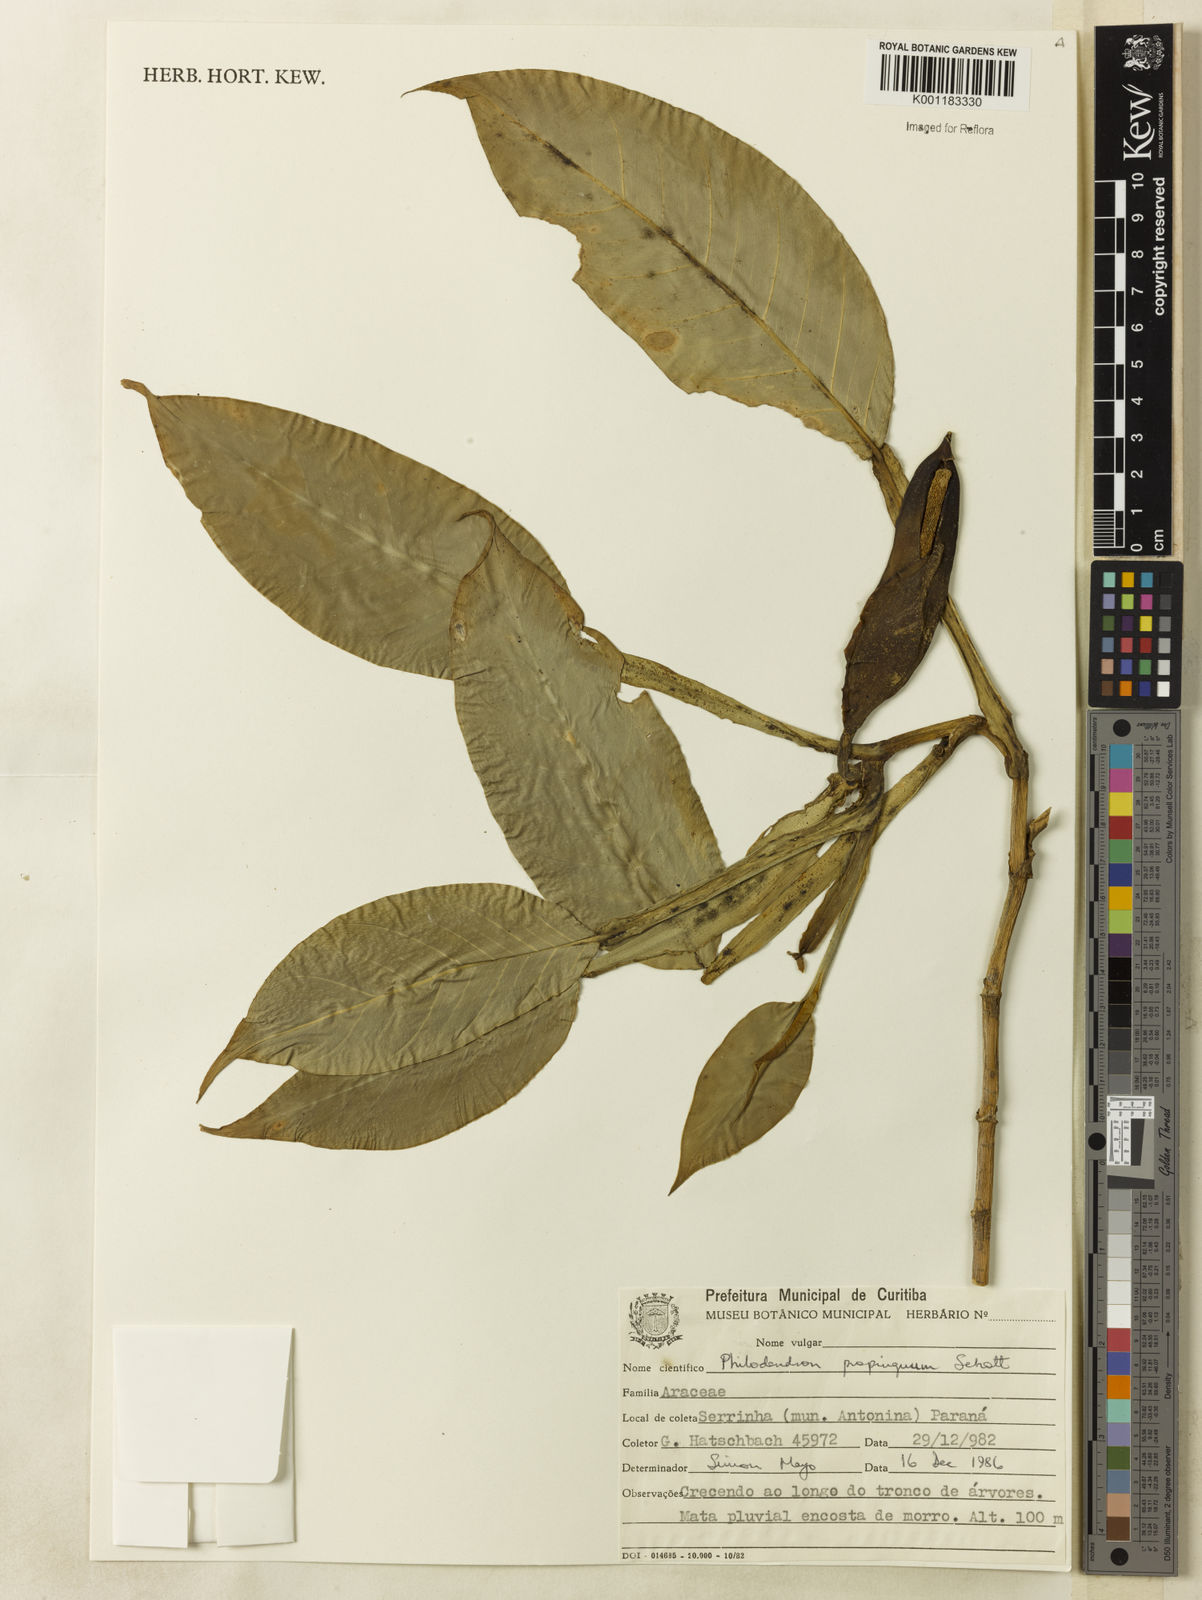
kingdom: Plantae
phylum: Tracheophyta
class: Liliopsida
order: Alismatales
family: Araceae
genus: Philodendron
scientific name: Philodendron propinquum
